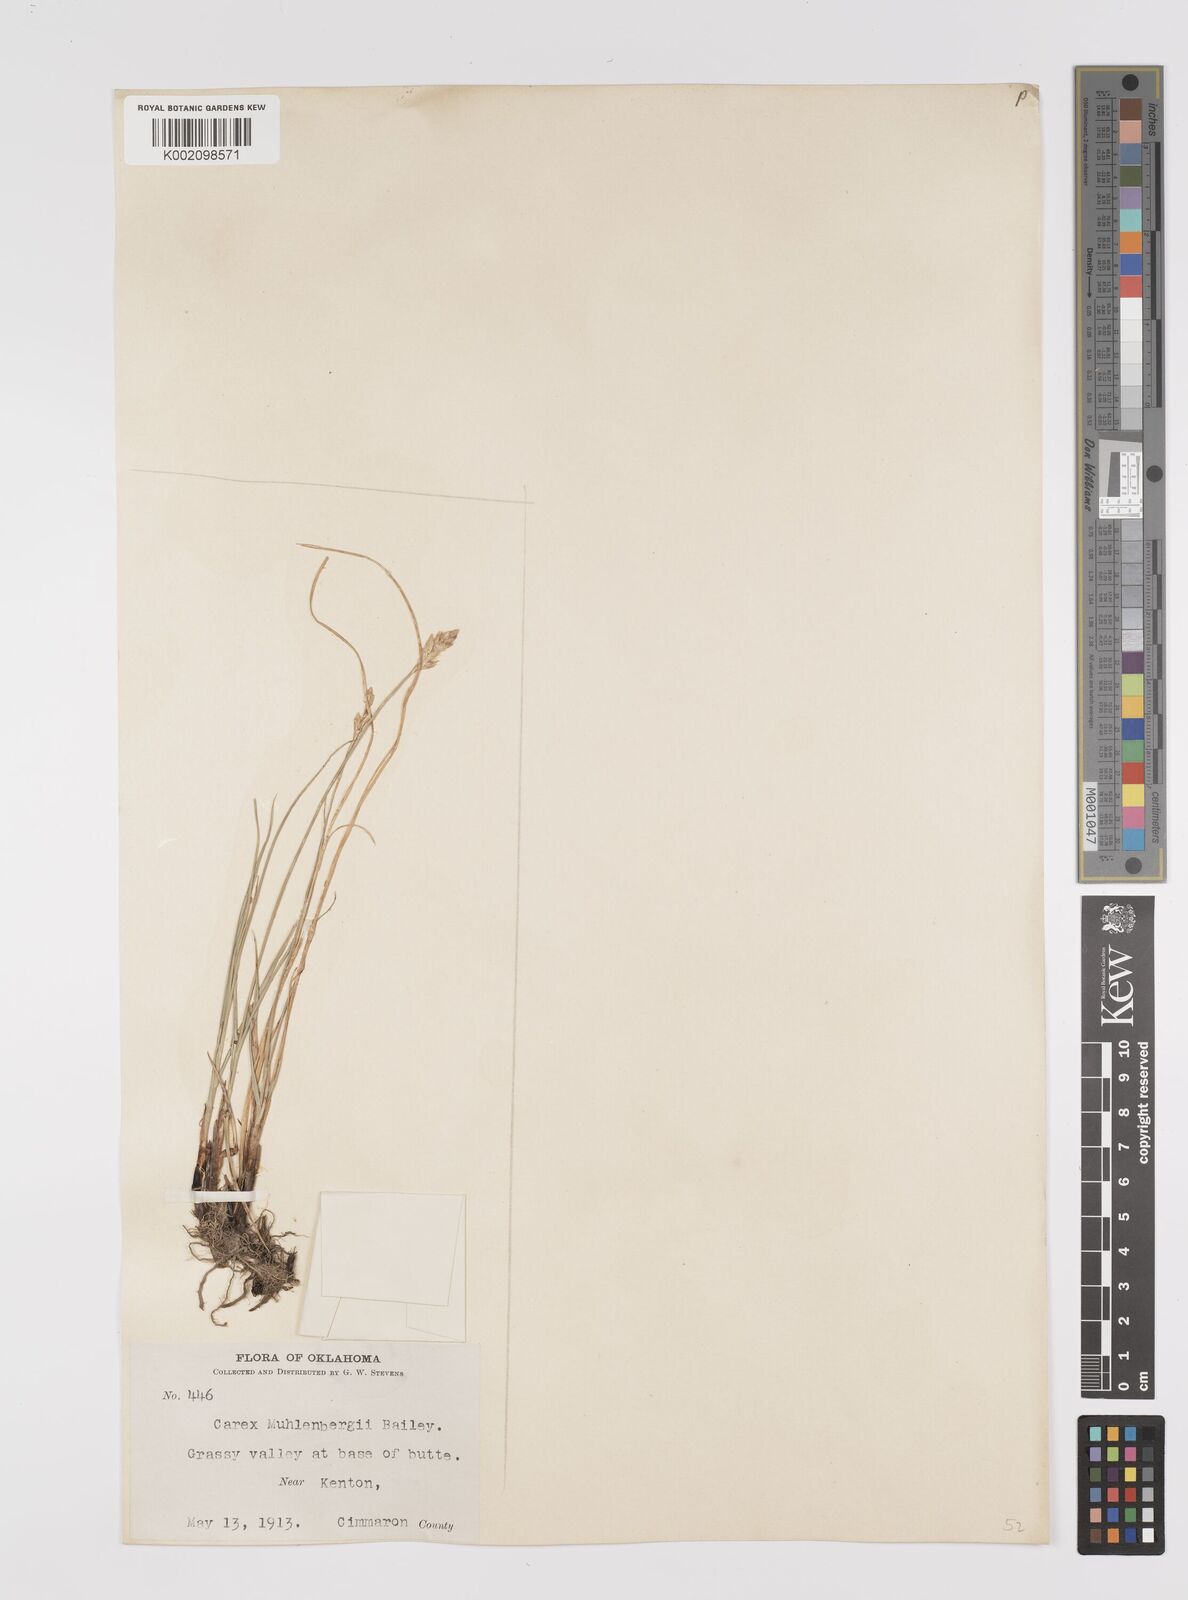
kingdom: Plantae
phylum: Tracheophyta
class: Liliopsida
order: Poales
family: Cyperaceae
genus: Carex
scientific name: Carex vulpinoidea
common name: American fox-sedge
